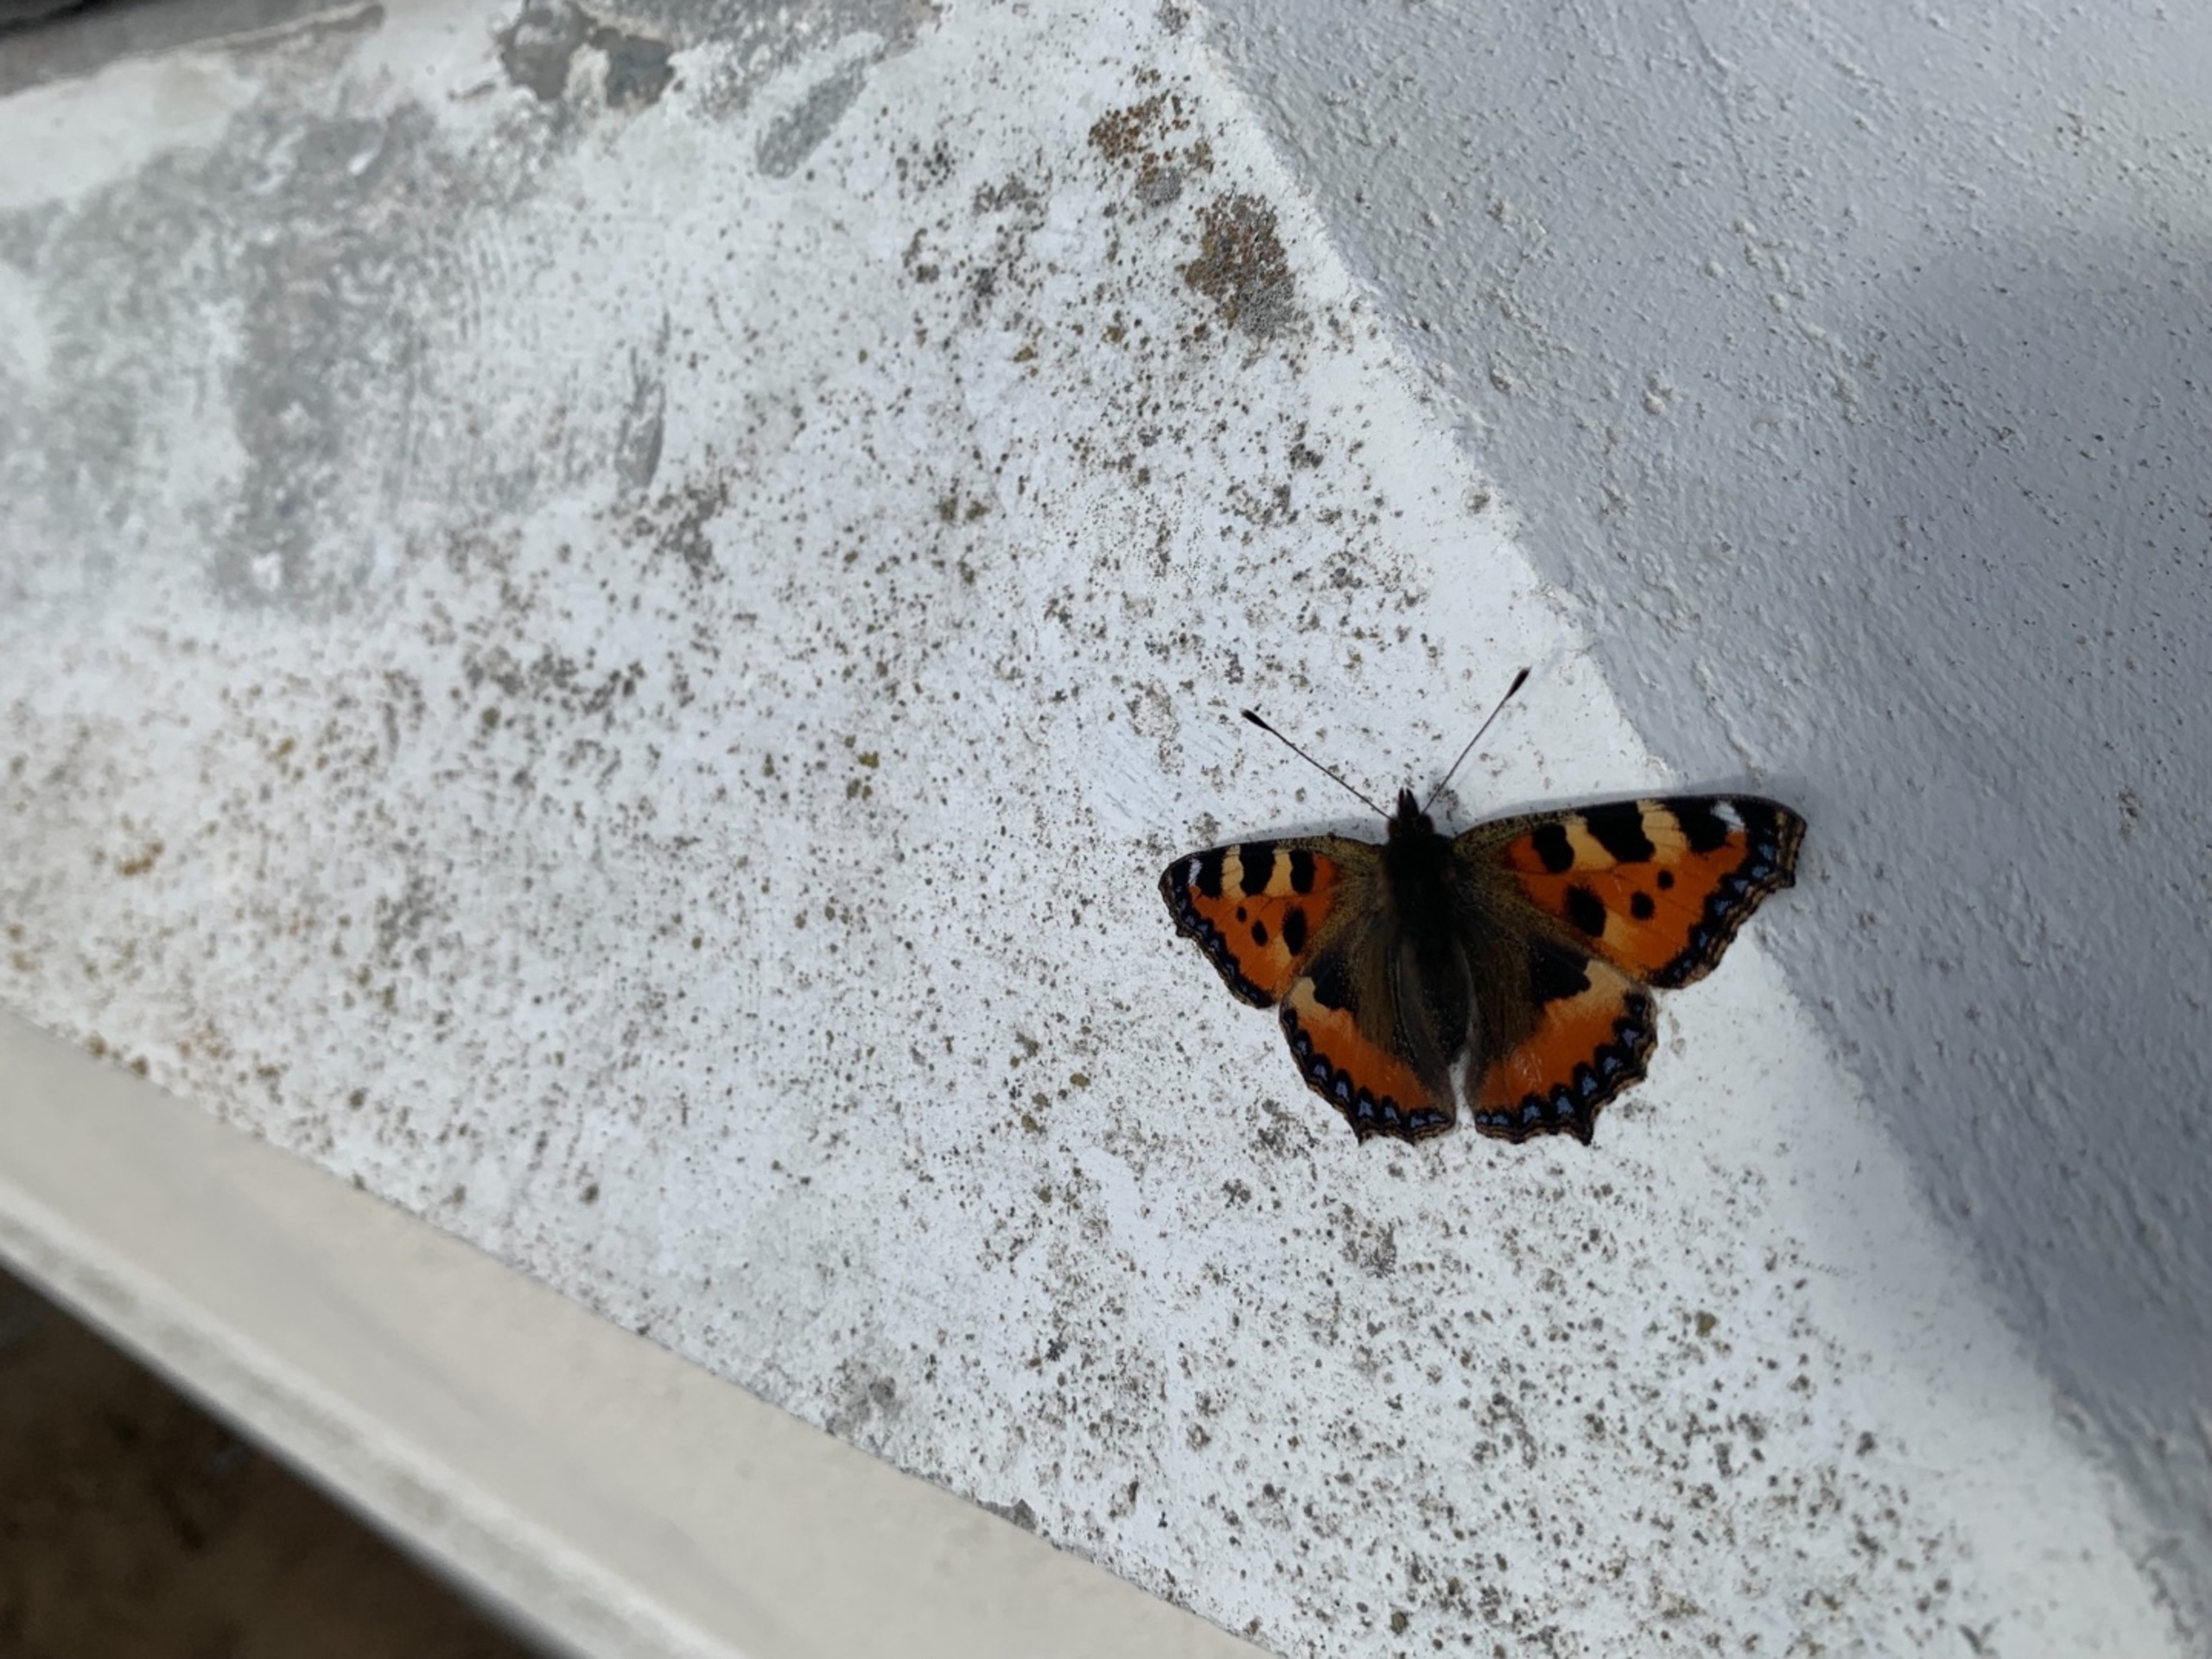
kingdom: Animalia
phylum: Arthropoda
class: Insecta
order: Lepidoptera
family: Nymphalidae
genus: Aglais
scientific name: Aglais urticae
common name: Nældens takvinge
